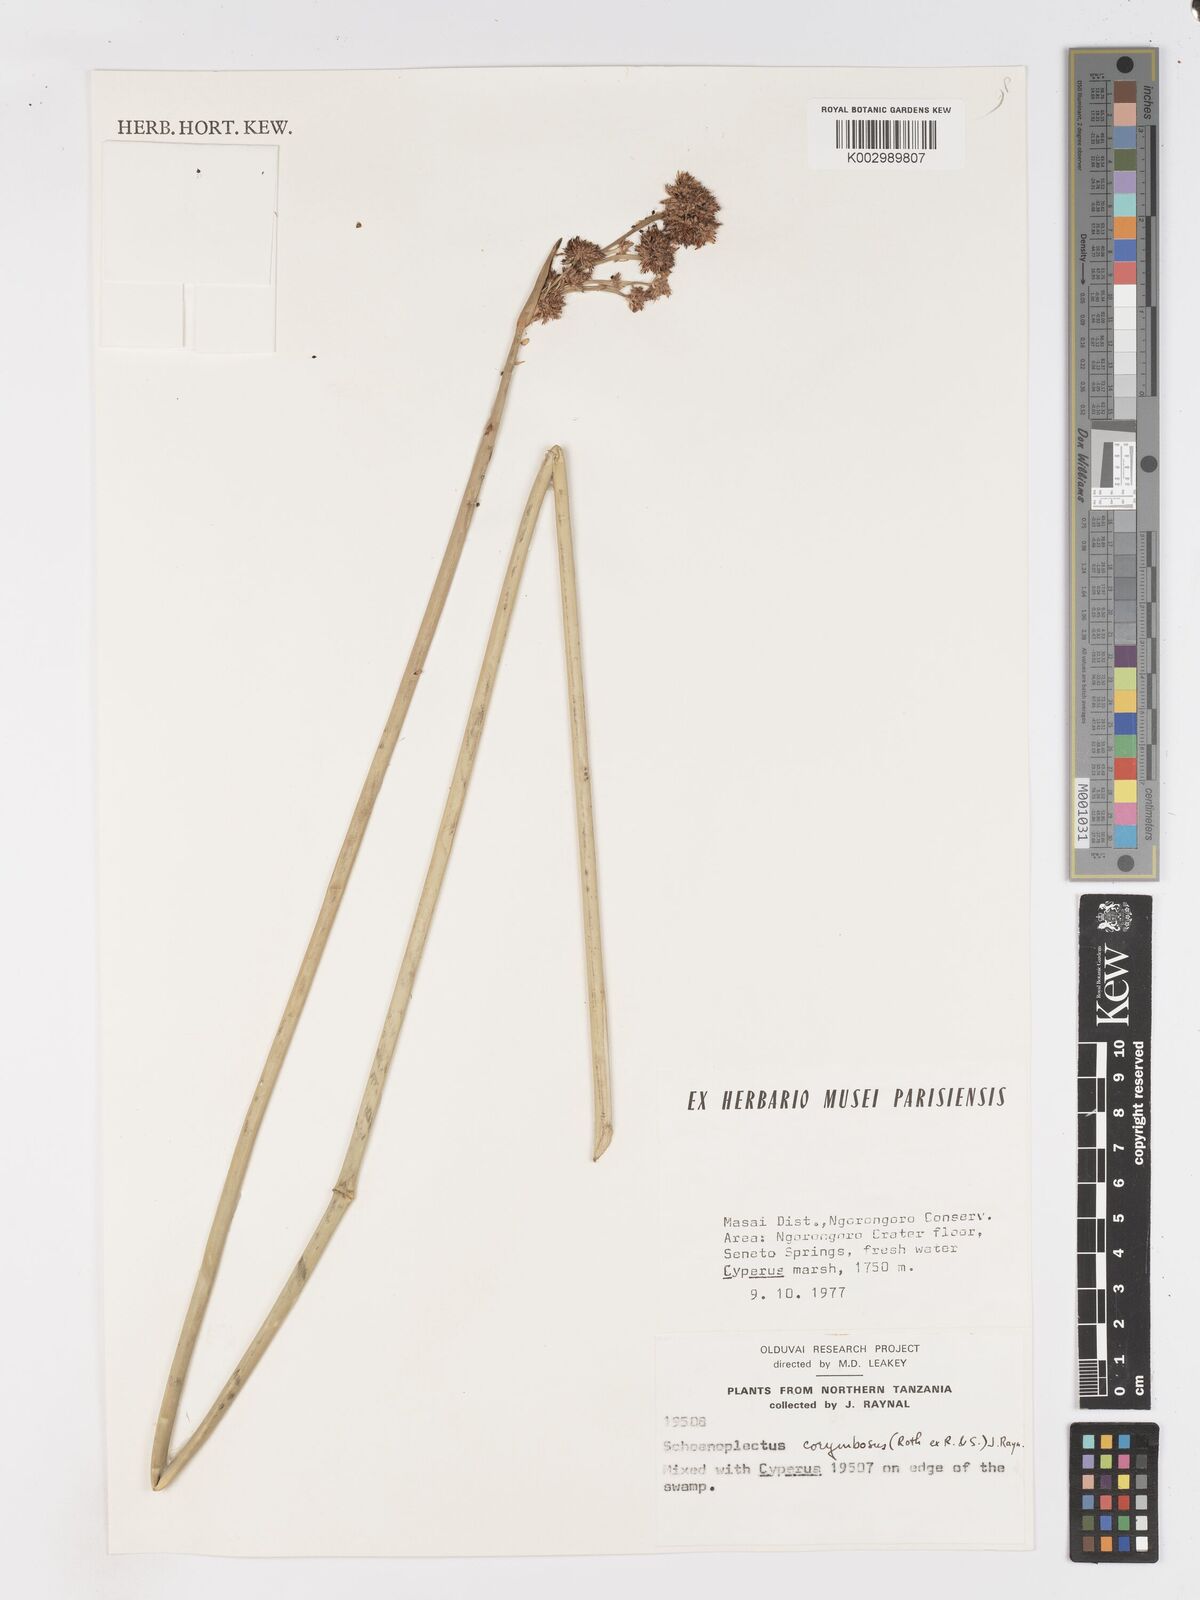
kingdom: Plantae
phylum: Tracheophyta
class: Liliopsida
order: Poales
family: Cyperaceae
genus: Schoenoplectiella
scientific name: Schoenoplectiella brachyceras
